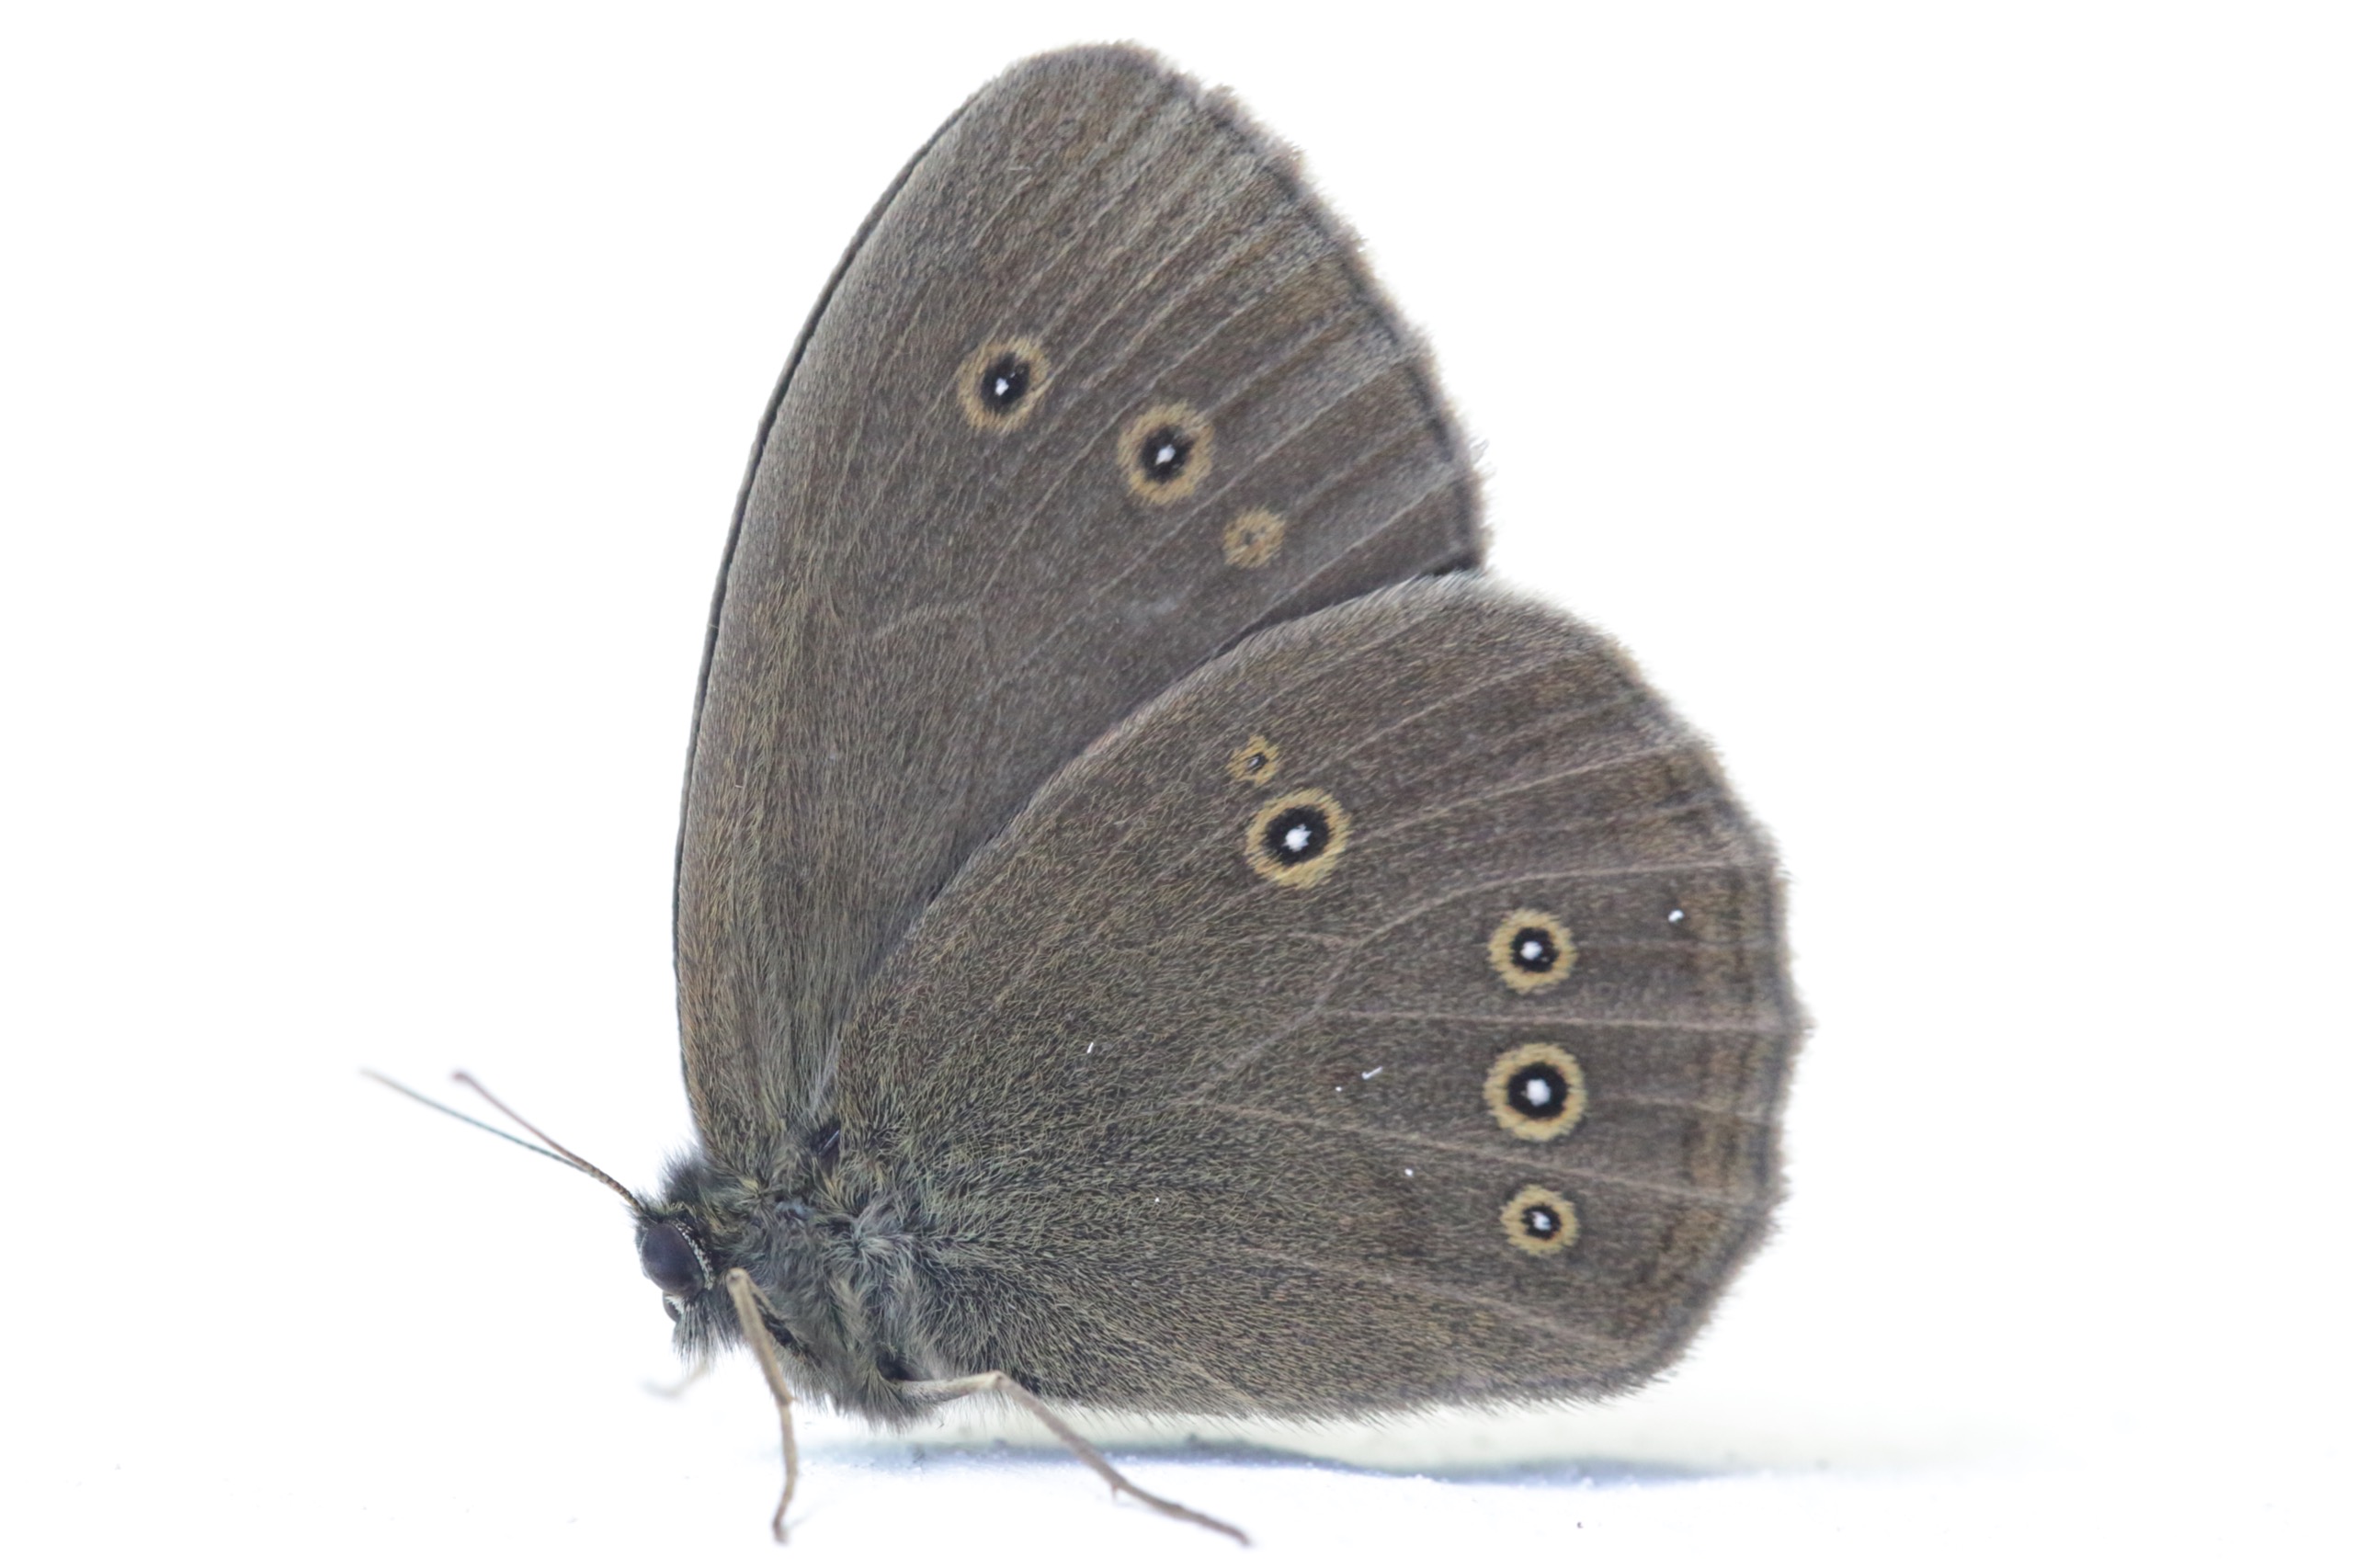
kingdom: Animalia
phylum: Arthropoda
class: Insecta
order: Lepidoptera
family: Nymphalidae
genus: Aphantopus
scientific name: Aphantopus hyperantus
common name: Engrandøje
